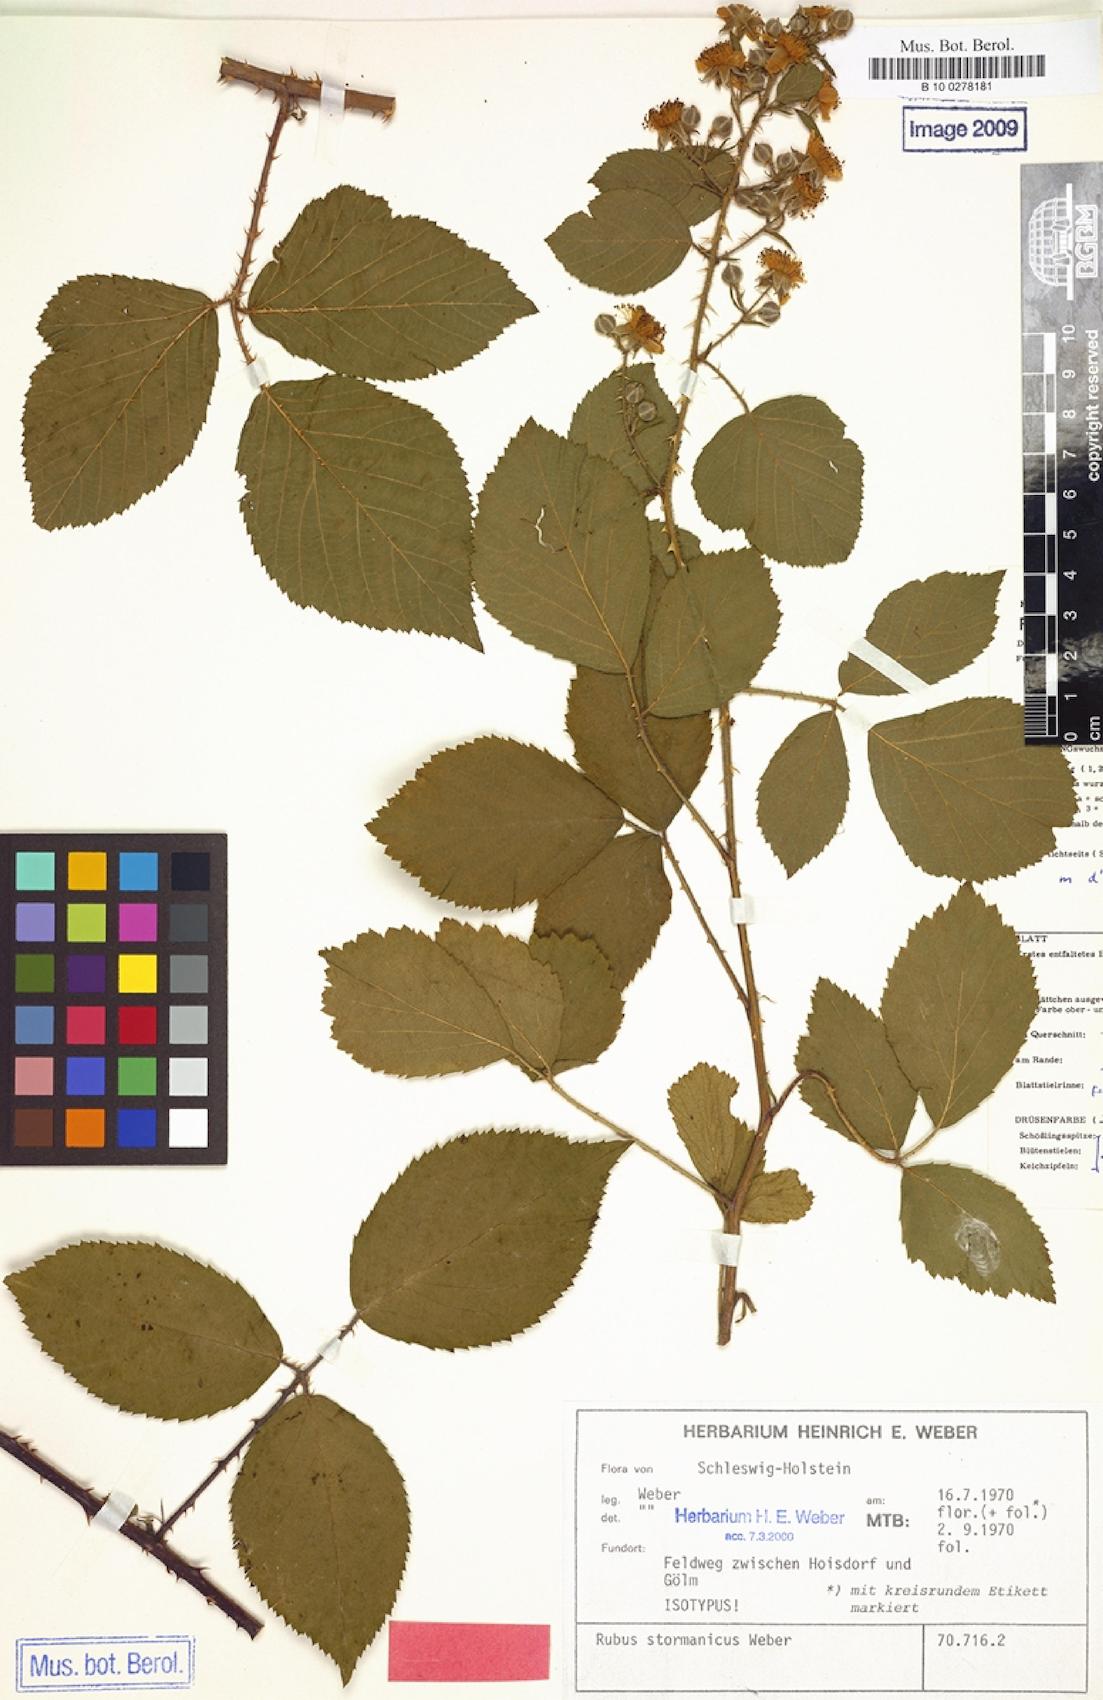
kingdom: Plantae
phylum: Tracheophyta
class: Magnoliopsida
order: Rosales
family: Rosaceae
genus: Rubus
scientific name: Rubus stormanicus
